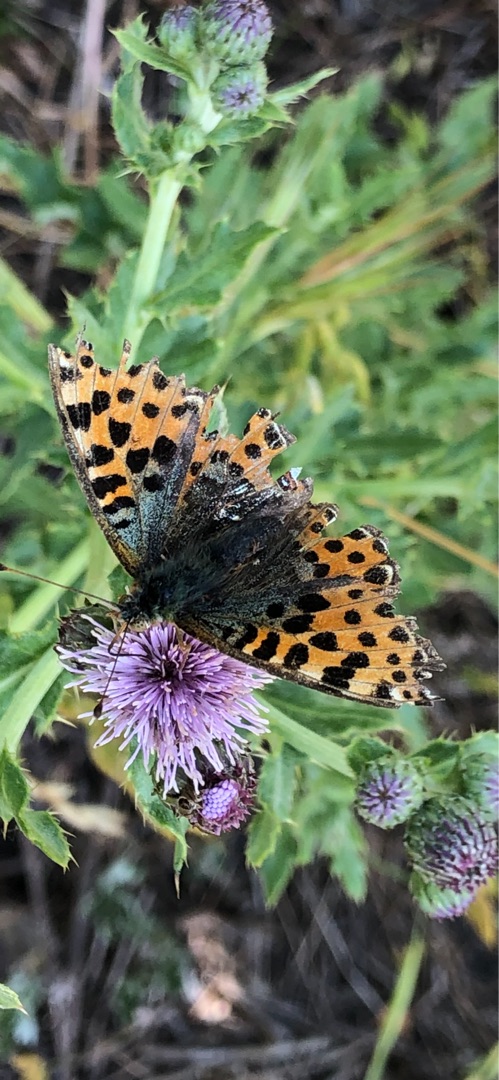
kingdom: Animalia
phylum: Arthropoda
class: Insecta
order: Lepidoptera
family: Nymphalidae
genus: Issoria
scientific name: Issoria lathonia
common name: Storplettet perlemorsommerfugl
